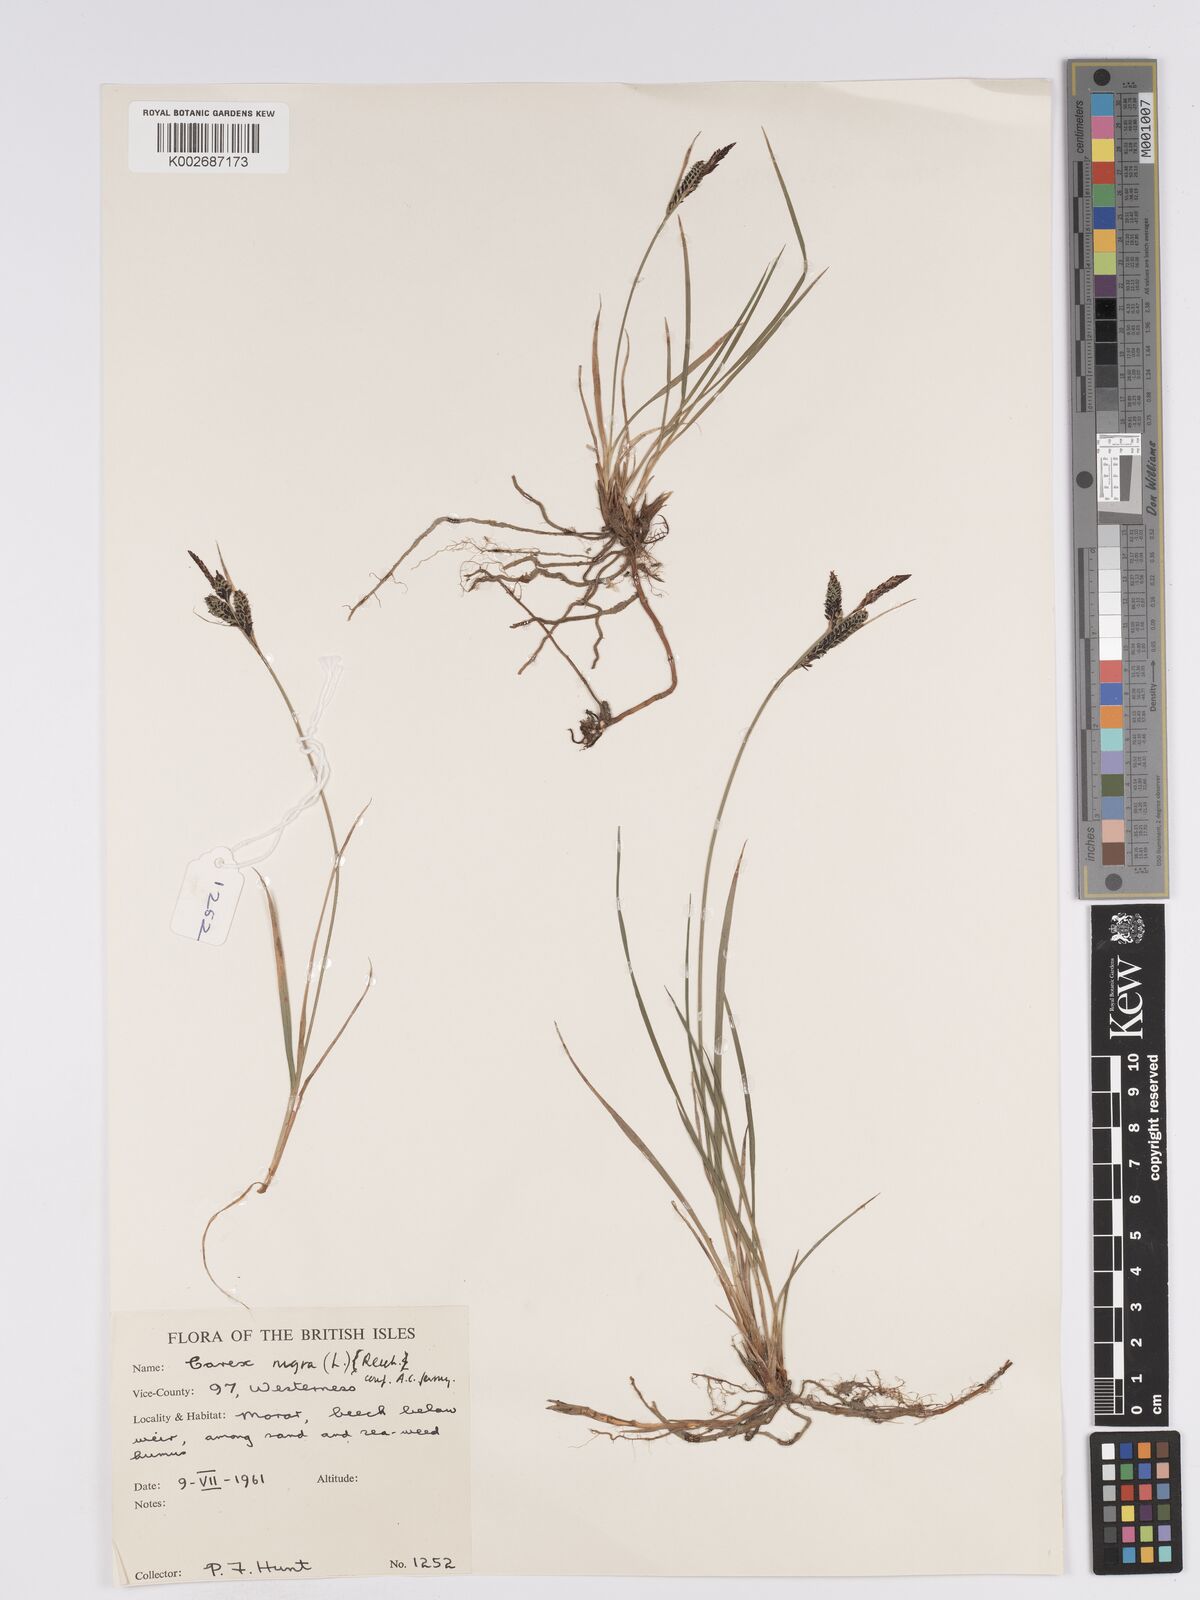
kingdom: Plantae
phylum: Tracheophyta
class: Liliopsida
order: Poales
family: Cyperaceae
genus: Carex
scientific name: Carex nigra
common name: Common sedge
